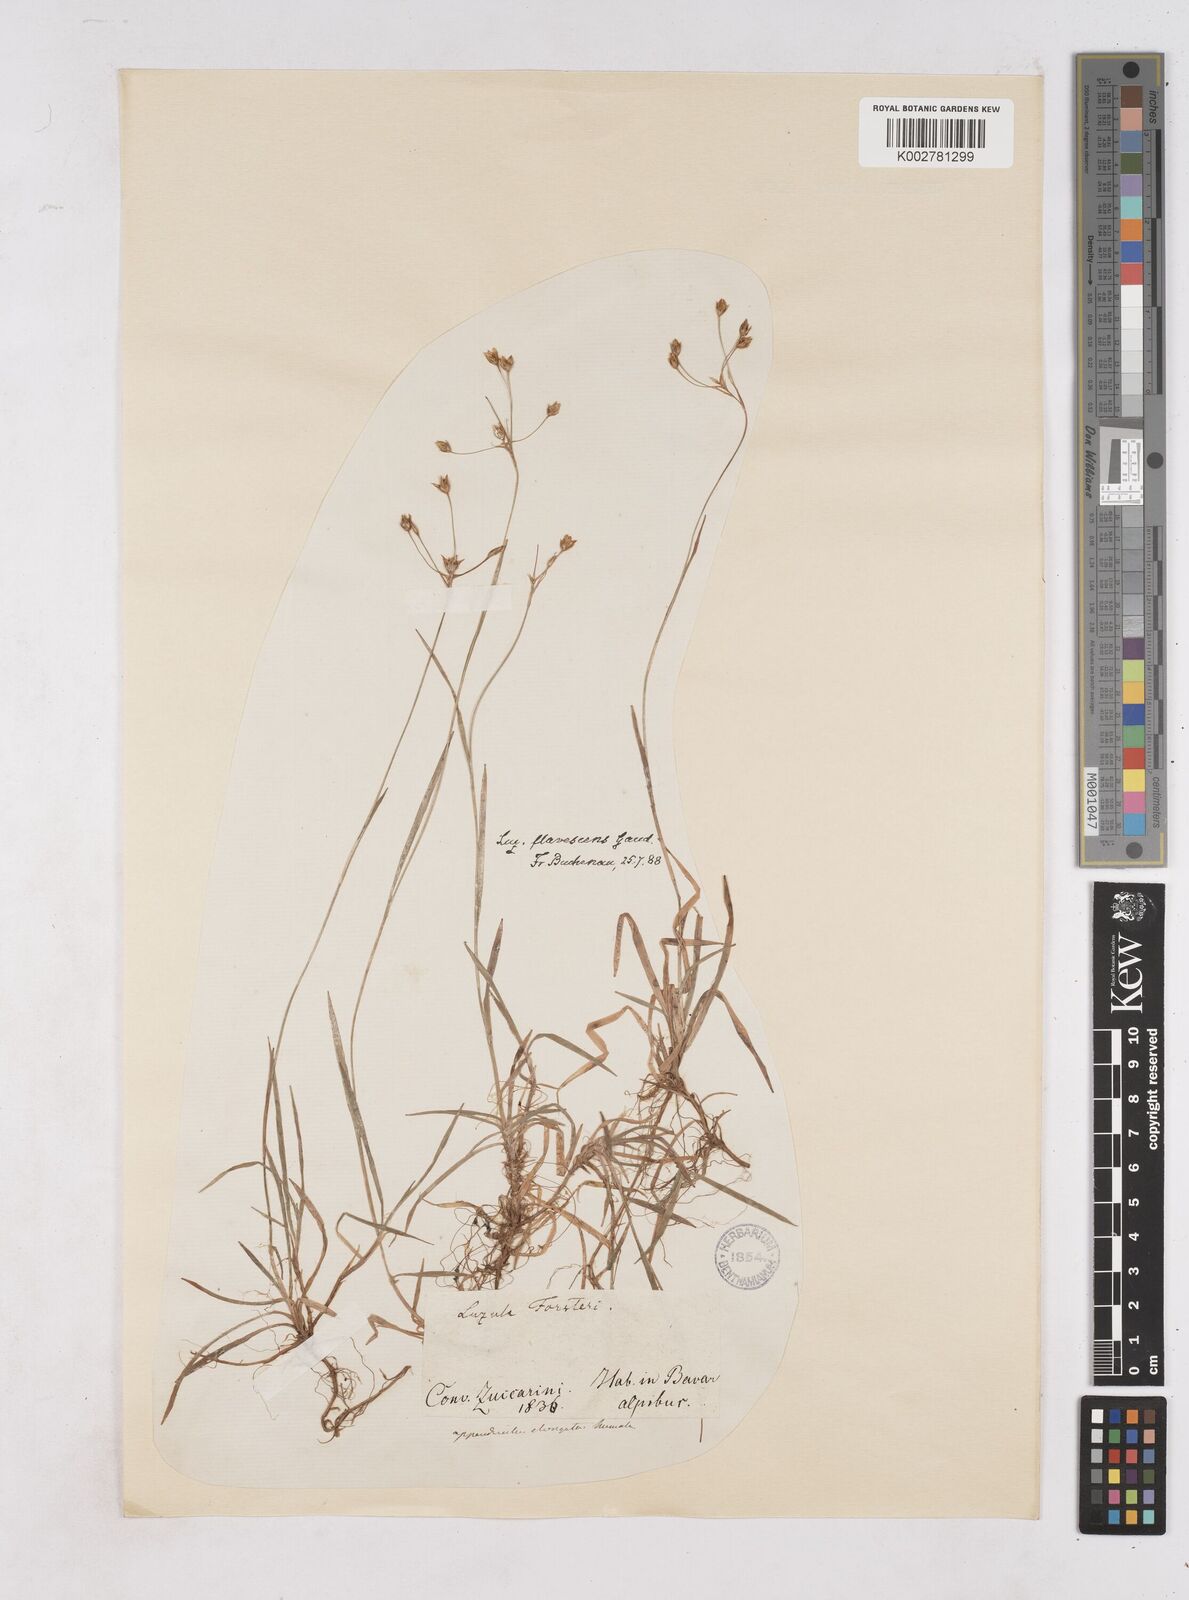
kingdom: Plantae
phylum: Tracheophyta
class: Liliopsida
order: Poales
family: Juncaceae
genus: Luzula
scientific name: Luzula luzulina
